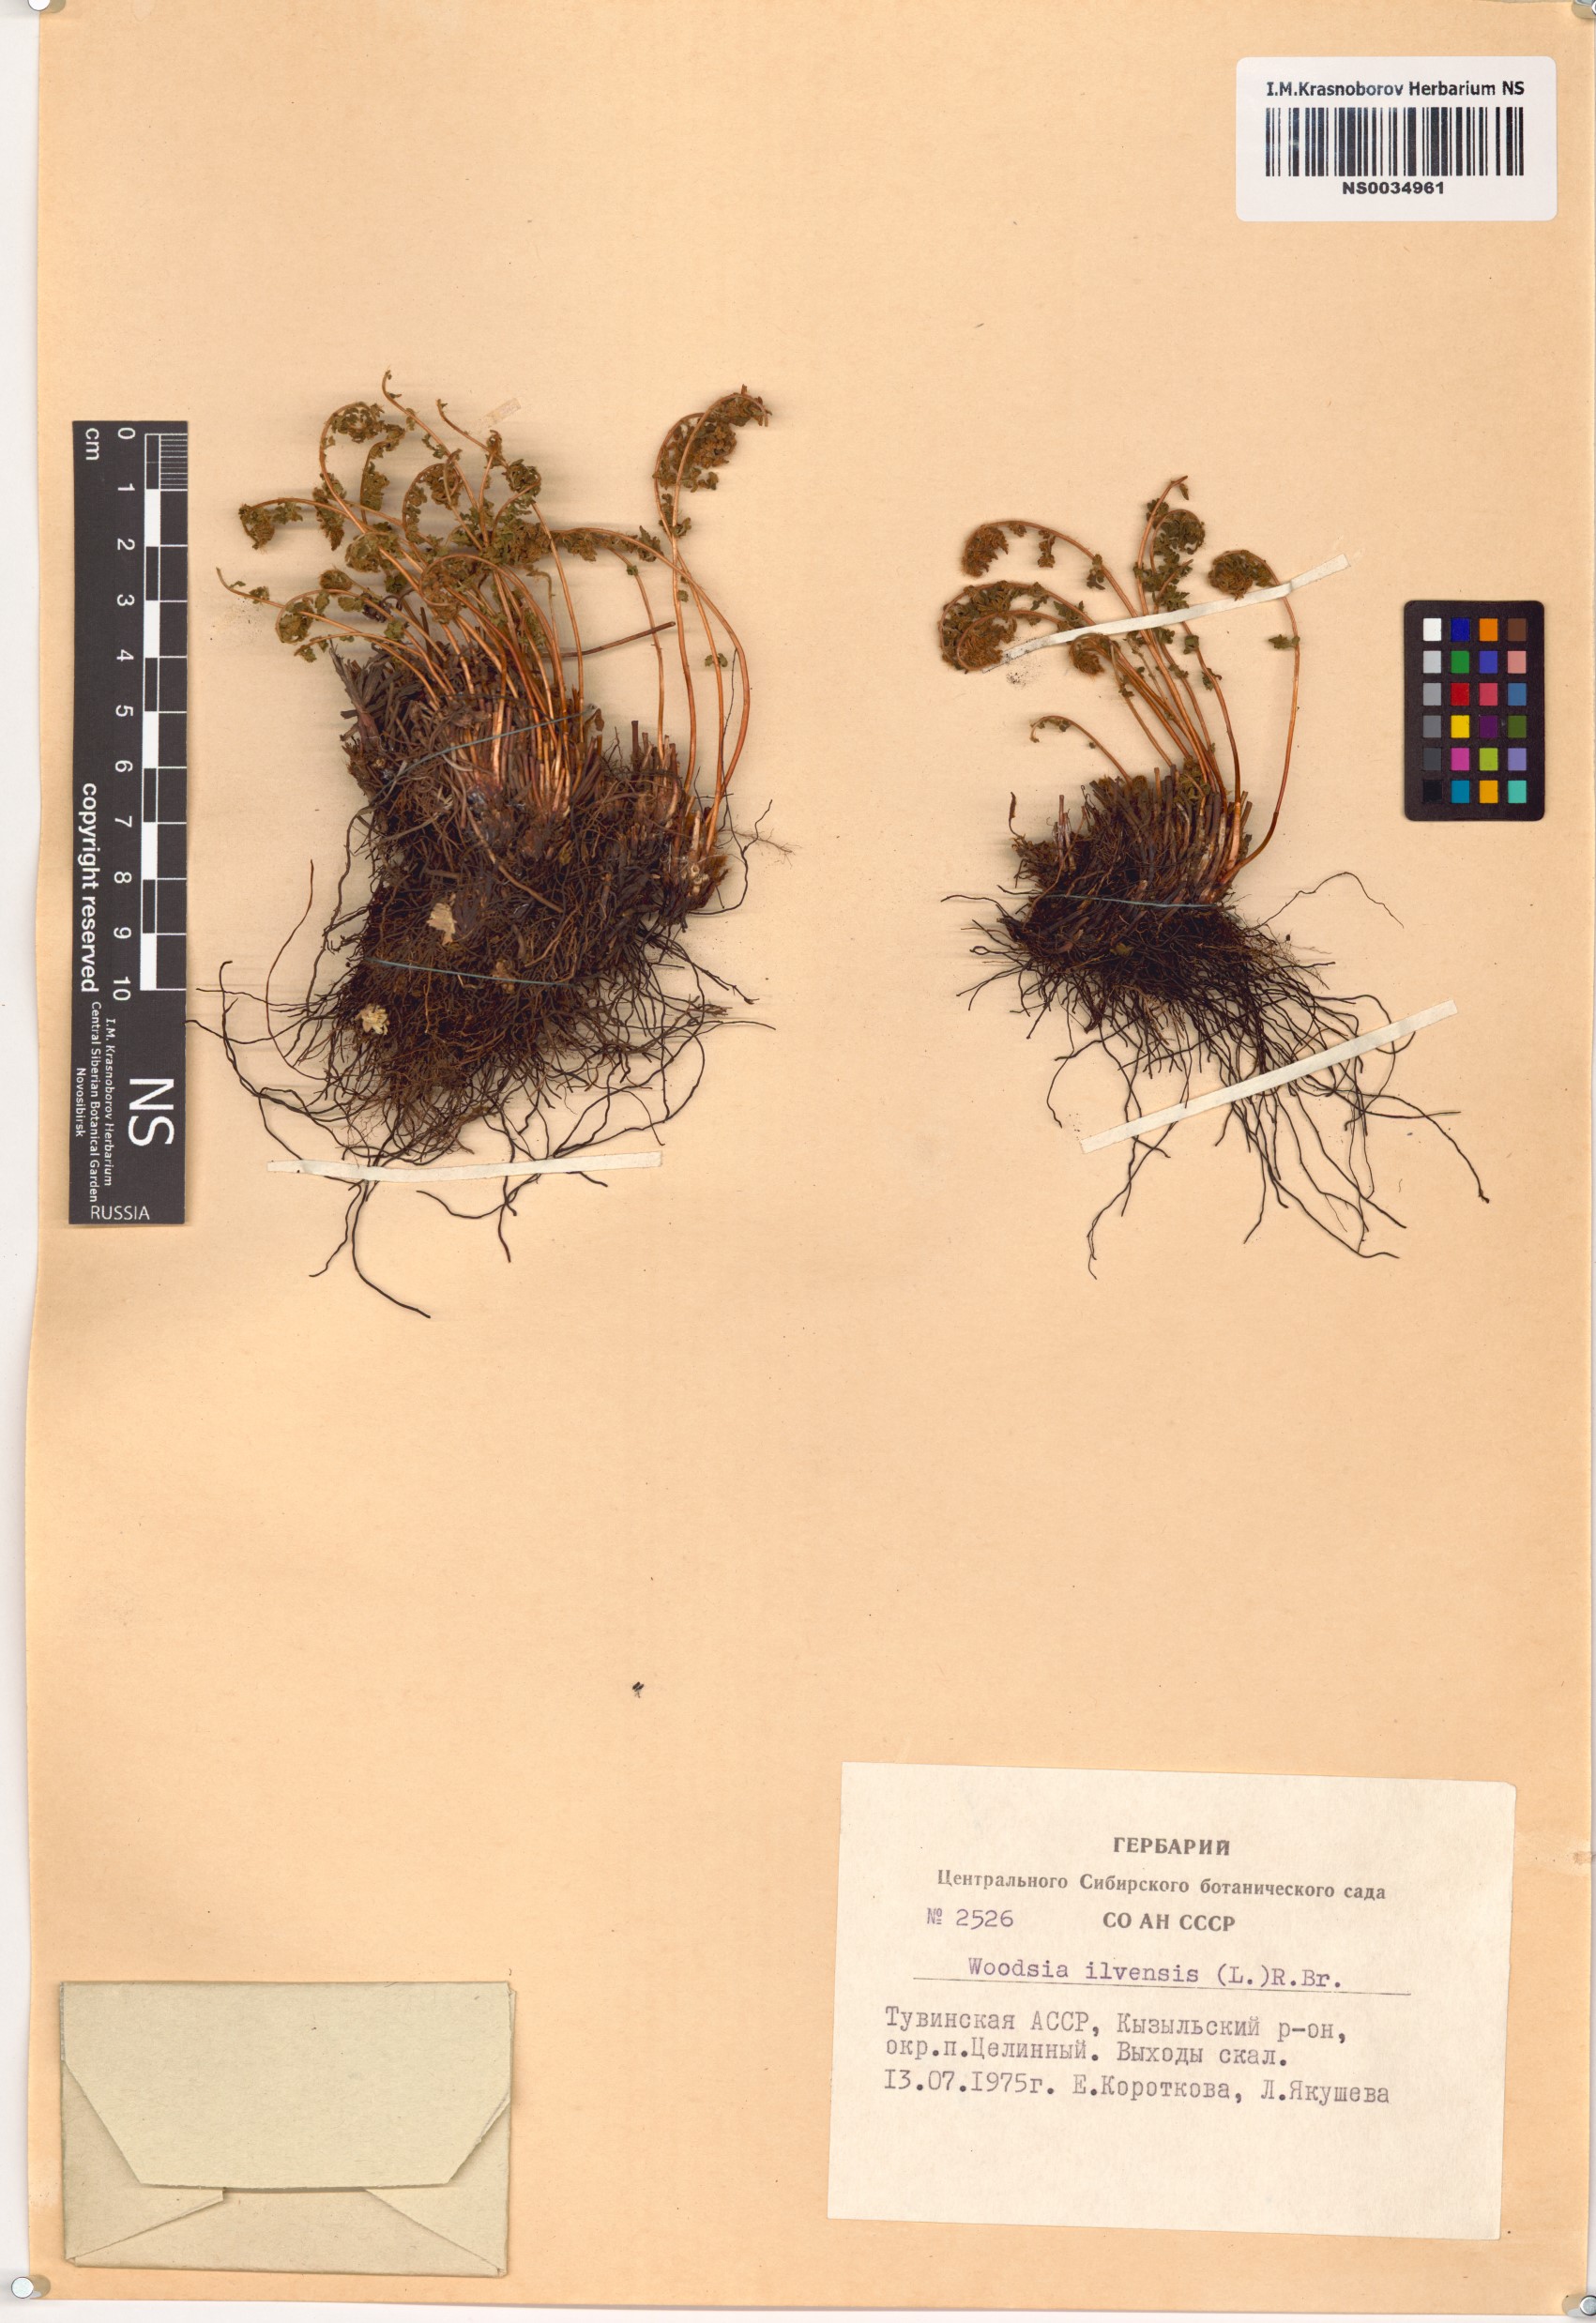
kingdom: Plantae
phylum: Tracheophyta
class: Polypodiopsida
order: Polypodiales
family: Woodsiaceae
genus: Woodsia
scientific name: Woodsia ilvensis
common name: Fragrant woodsia
